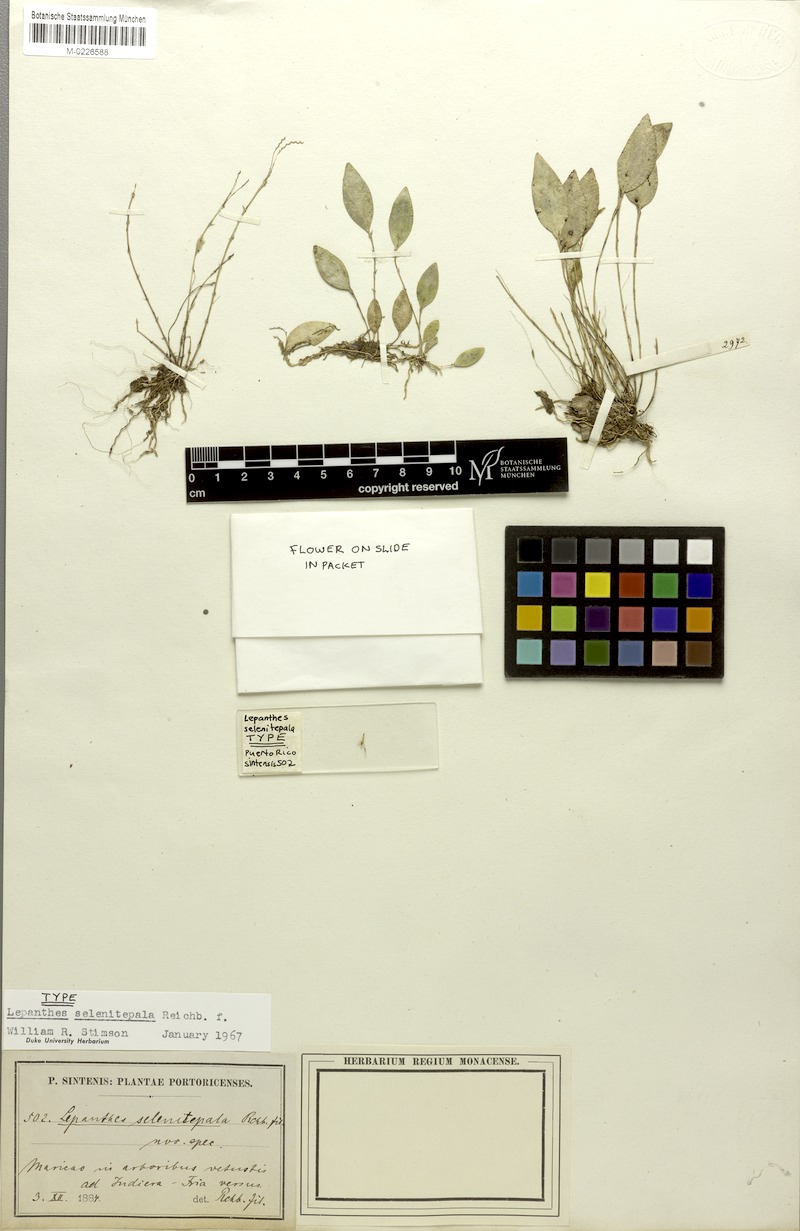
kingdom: Plantae
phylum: Tracheophyta
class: Liliopsida
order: Asparagales
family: Orchidaceae
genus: Lepanthes
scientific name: Lepanthes selenitepala
